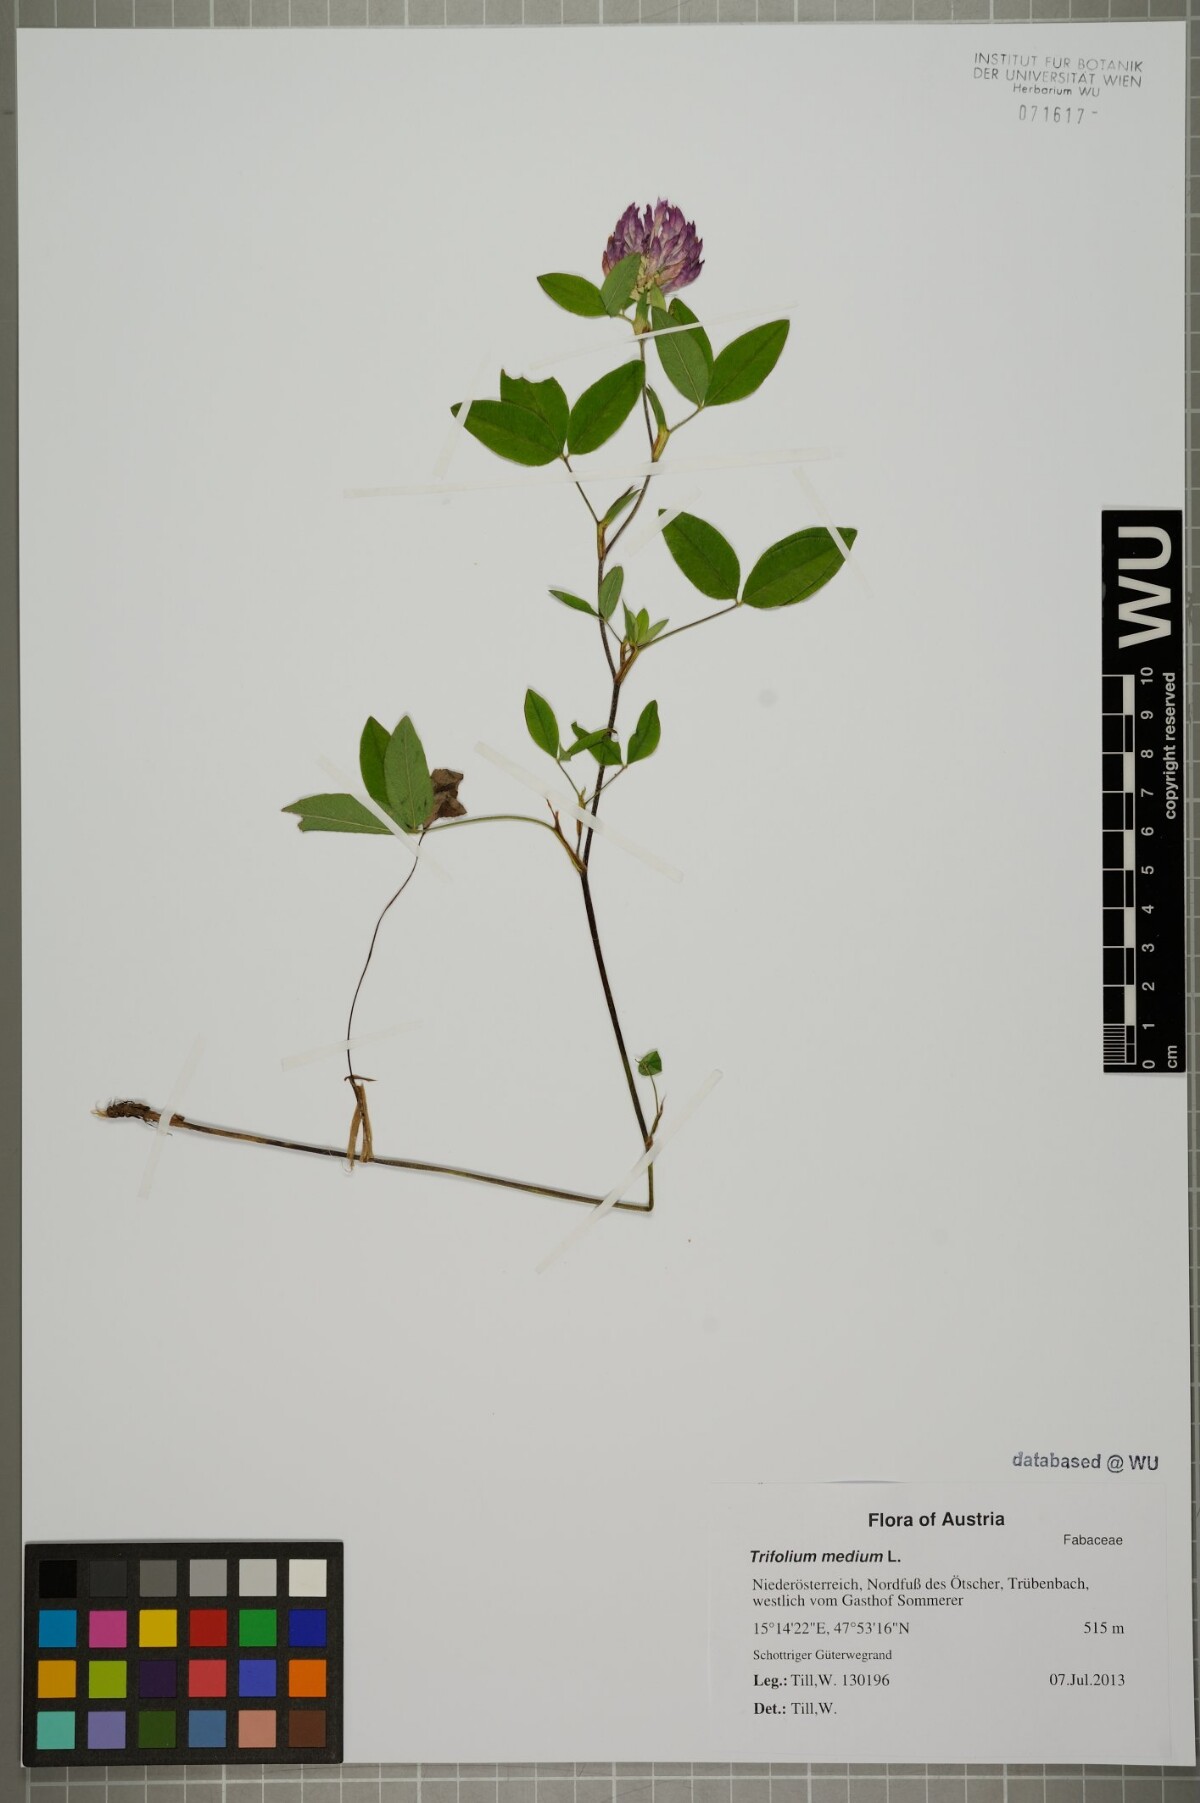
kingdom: Plantae
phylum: Tracheophyta
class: Magnoliopsida
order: Fabales
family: Fabaceae
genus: Trifolium
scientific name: Trifolium medium
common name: Zigzag clover
